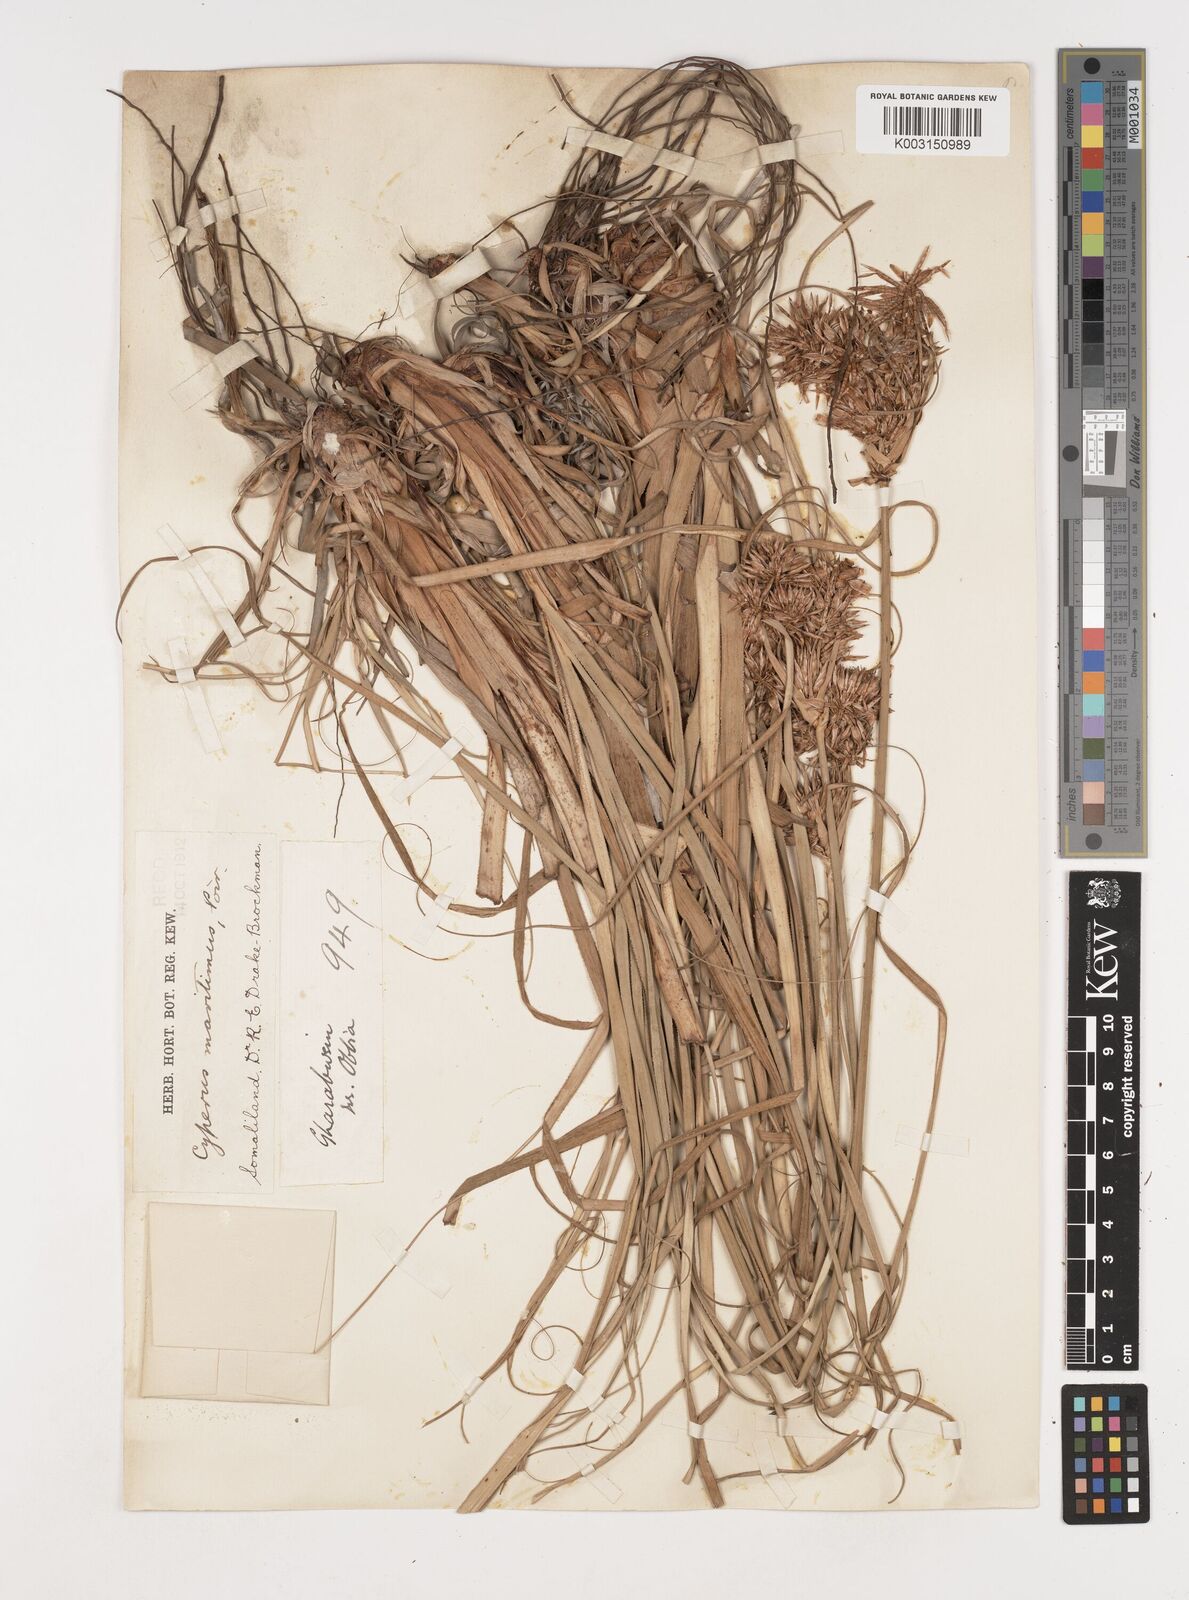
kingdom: Plantae
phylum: Tracheophyta
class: Liliopsida
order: Poales
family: Cyperaceae
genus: Cyperus
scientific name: Cyperus crassipes
